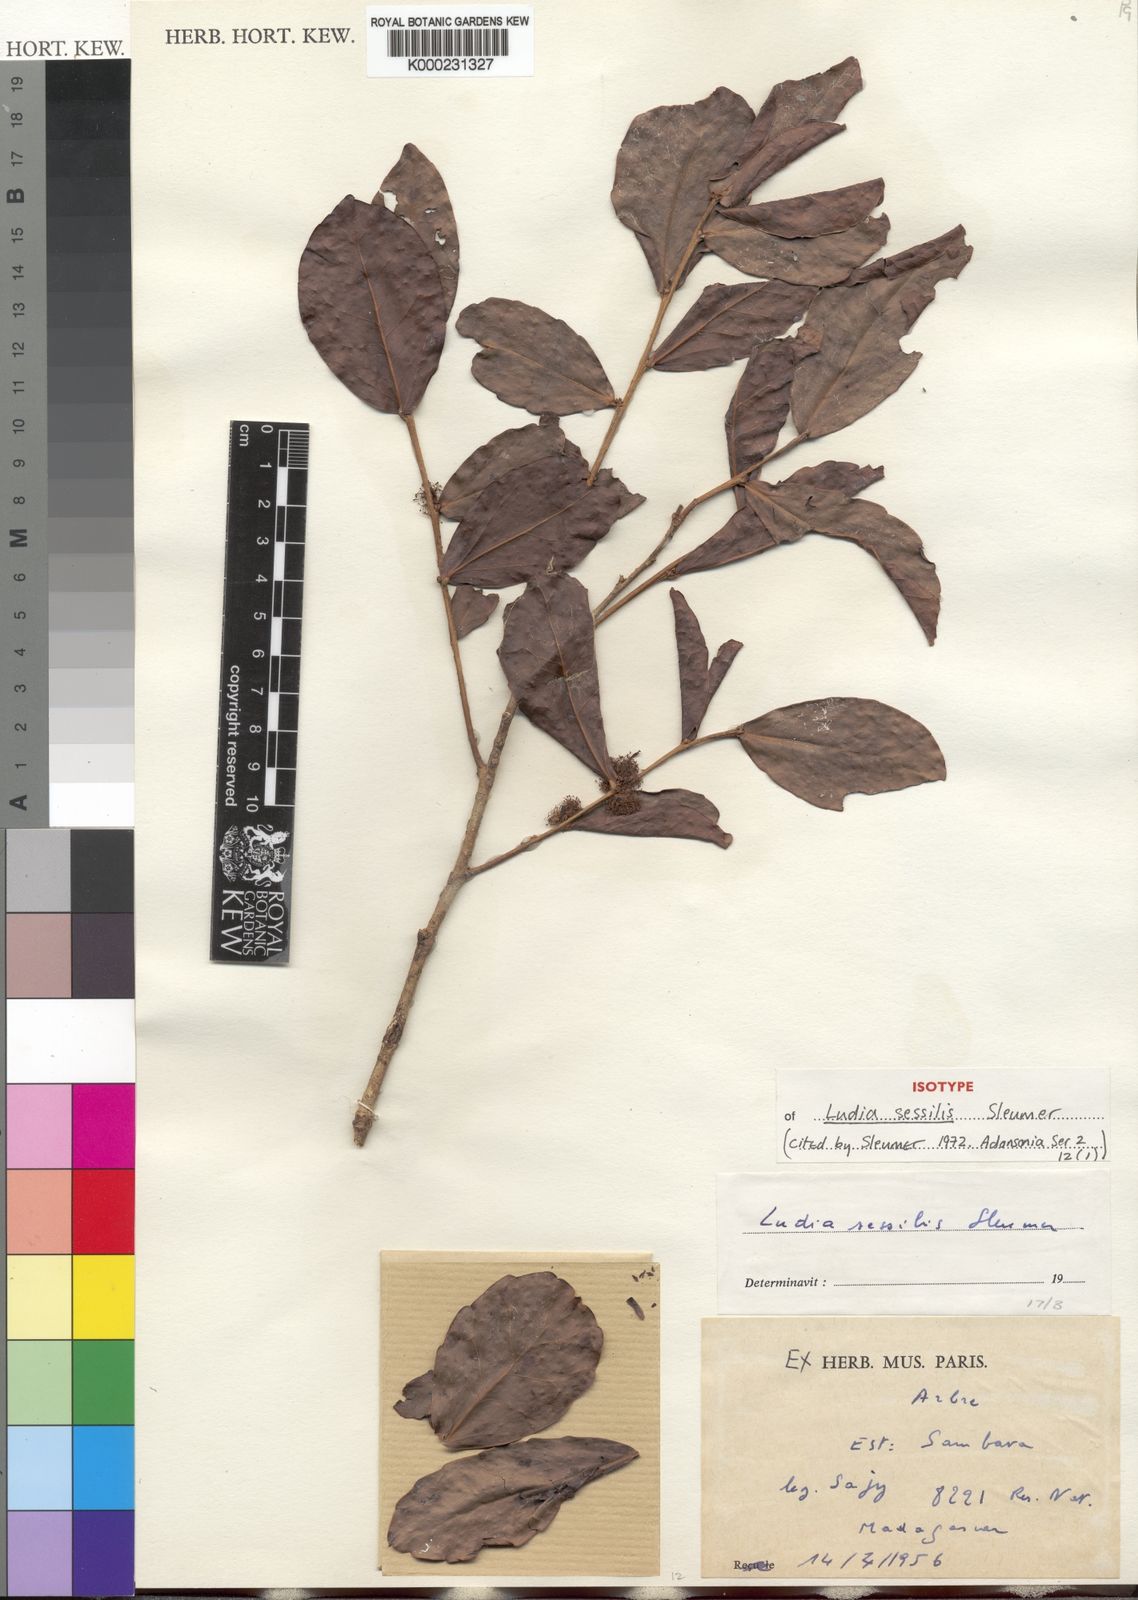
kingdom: Plantae
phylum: Tracheophyta
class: Magnoliopsida
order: Malpighiales
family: Salicaceae
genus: Ludia
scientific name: Ludia sessilis
